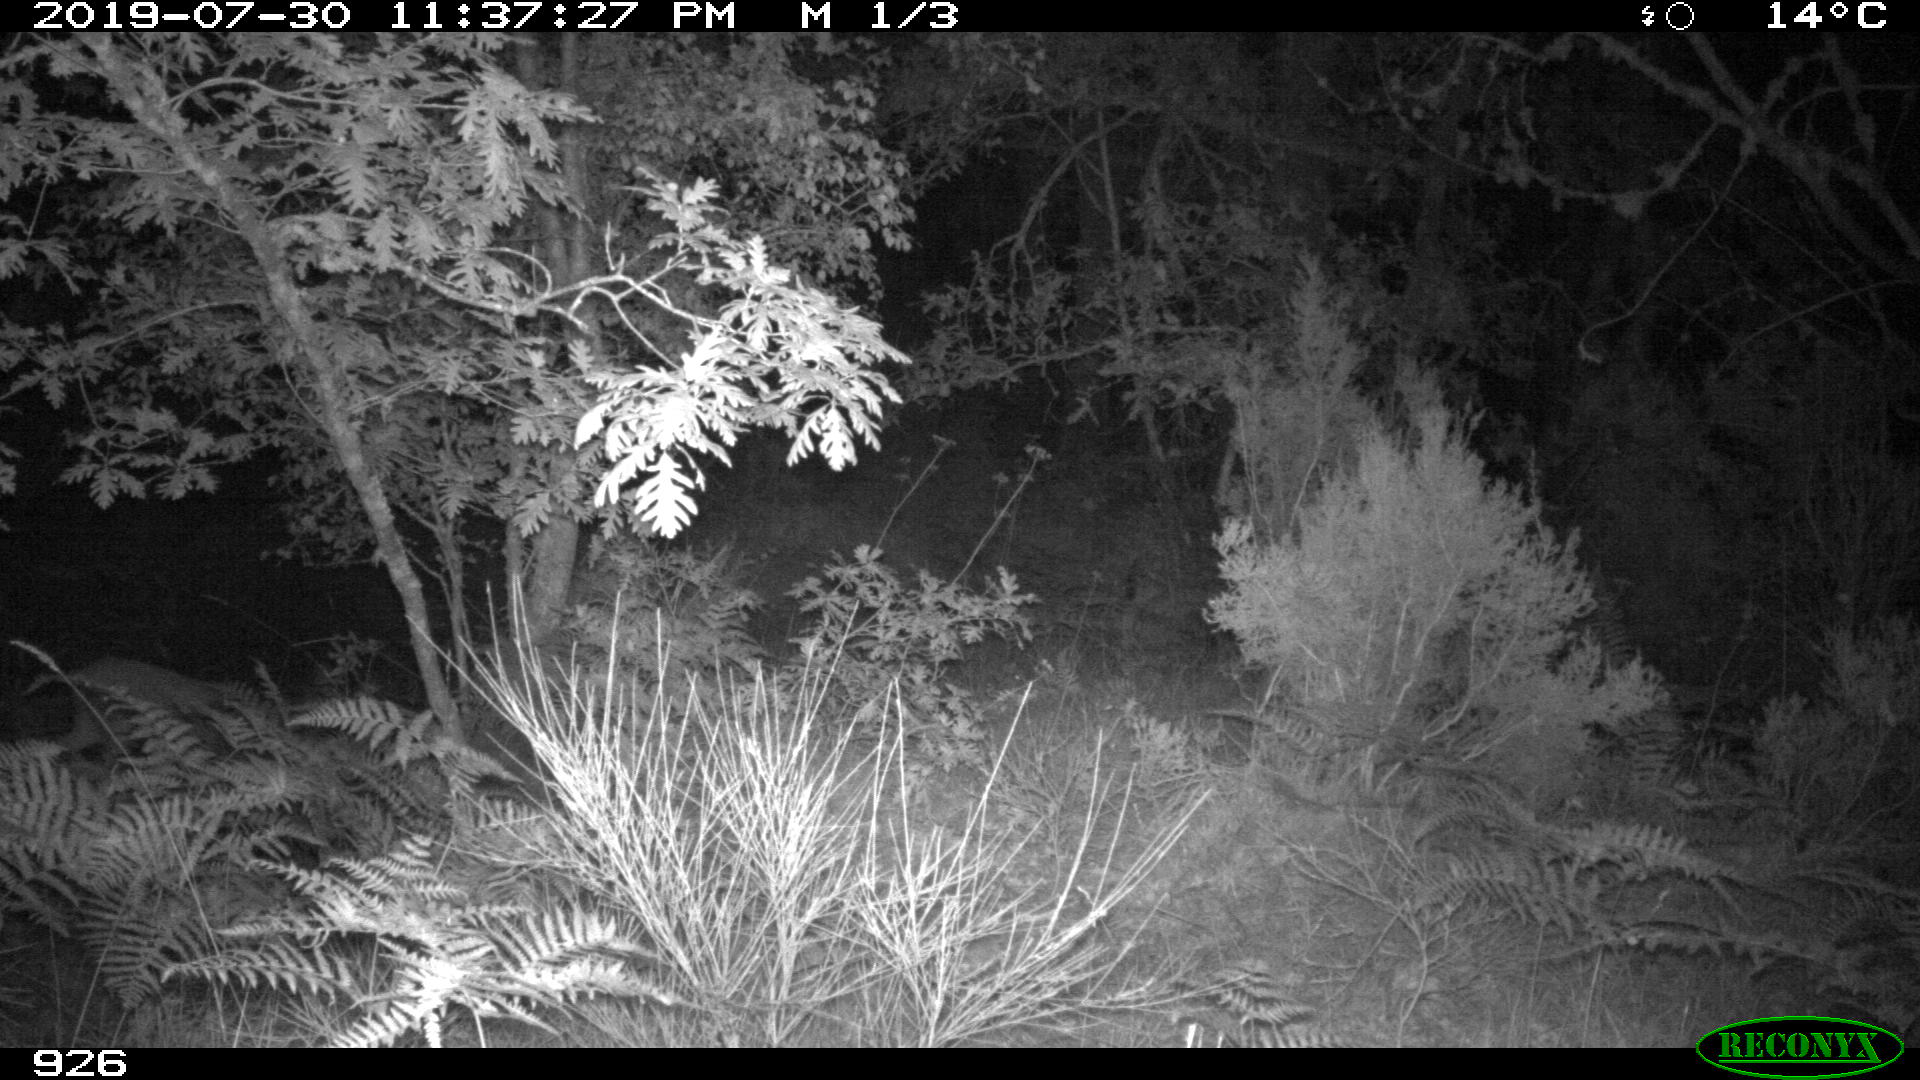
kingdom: Animalia
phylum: Chordata
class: Mammalia
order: Artiodactyla
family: Cervidae
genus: Capreolus
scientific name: Capreolus capreolus
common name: Western roe deer
